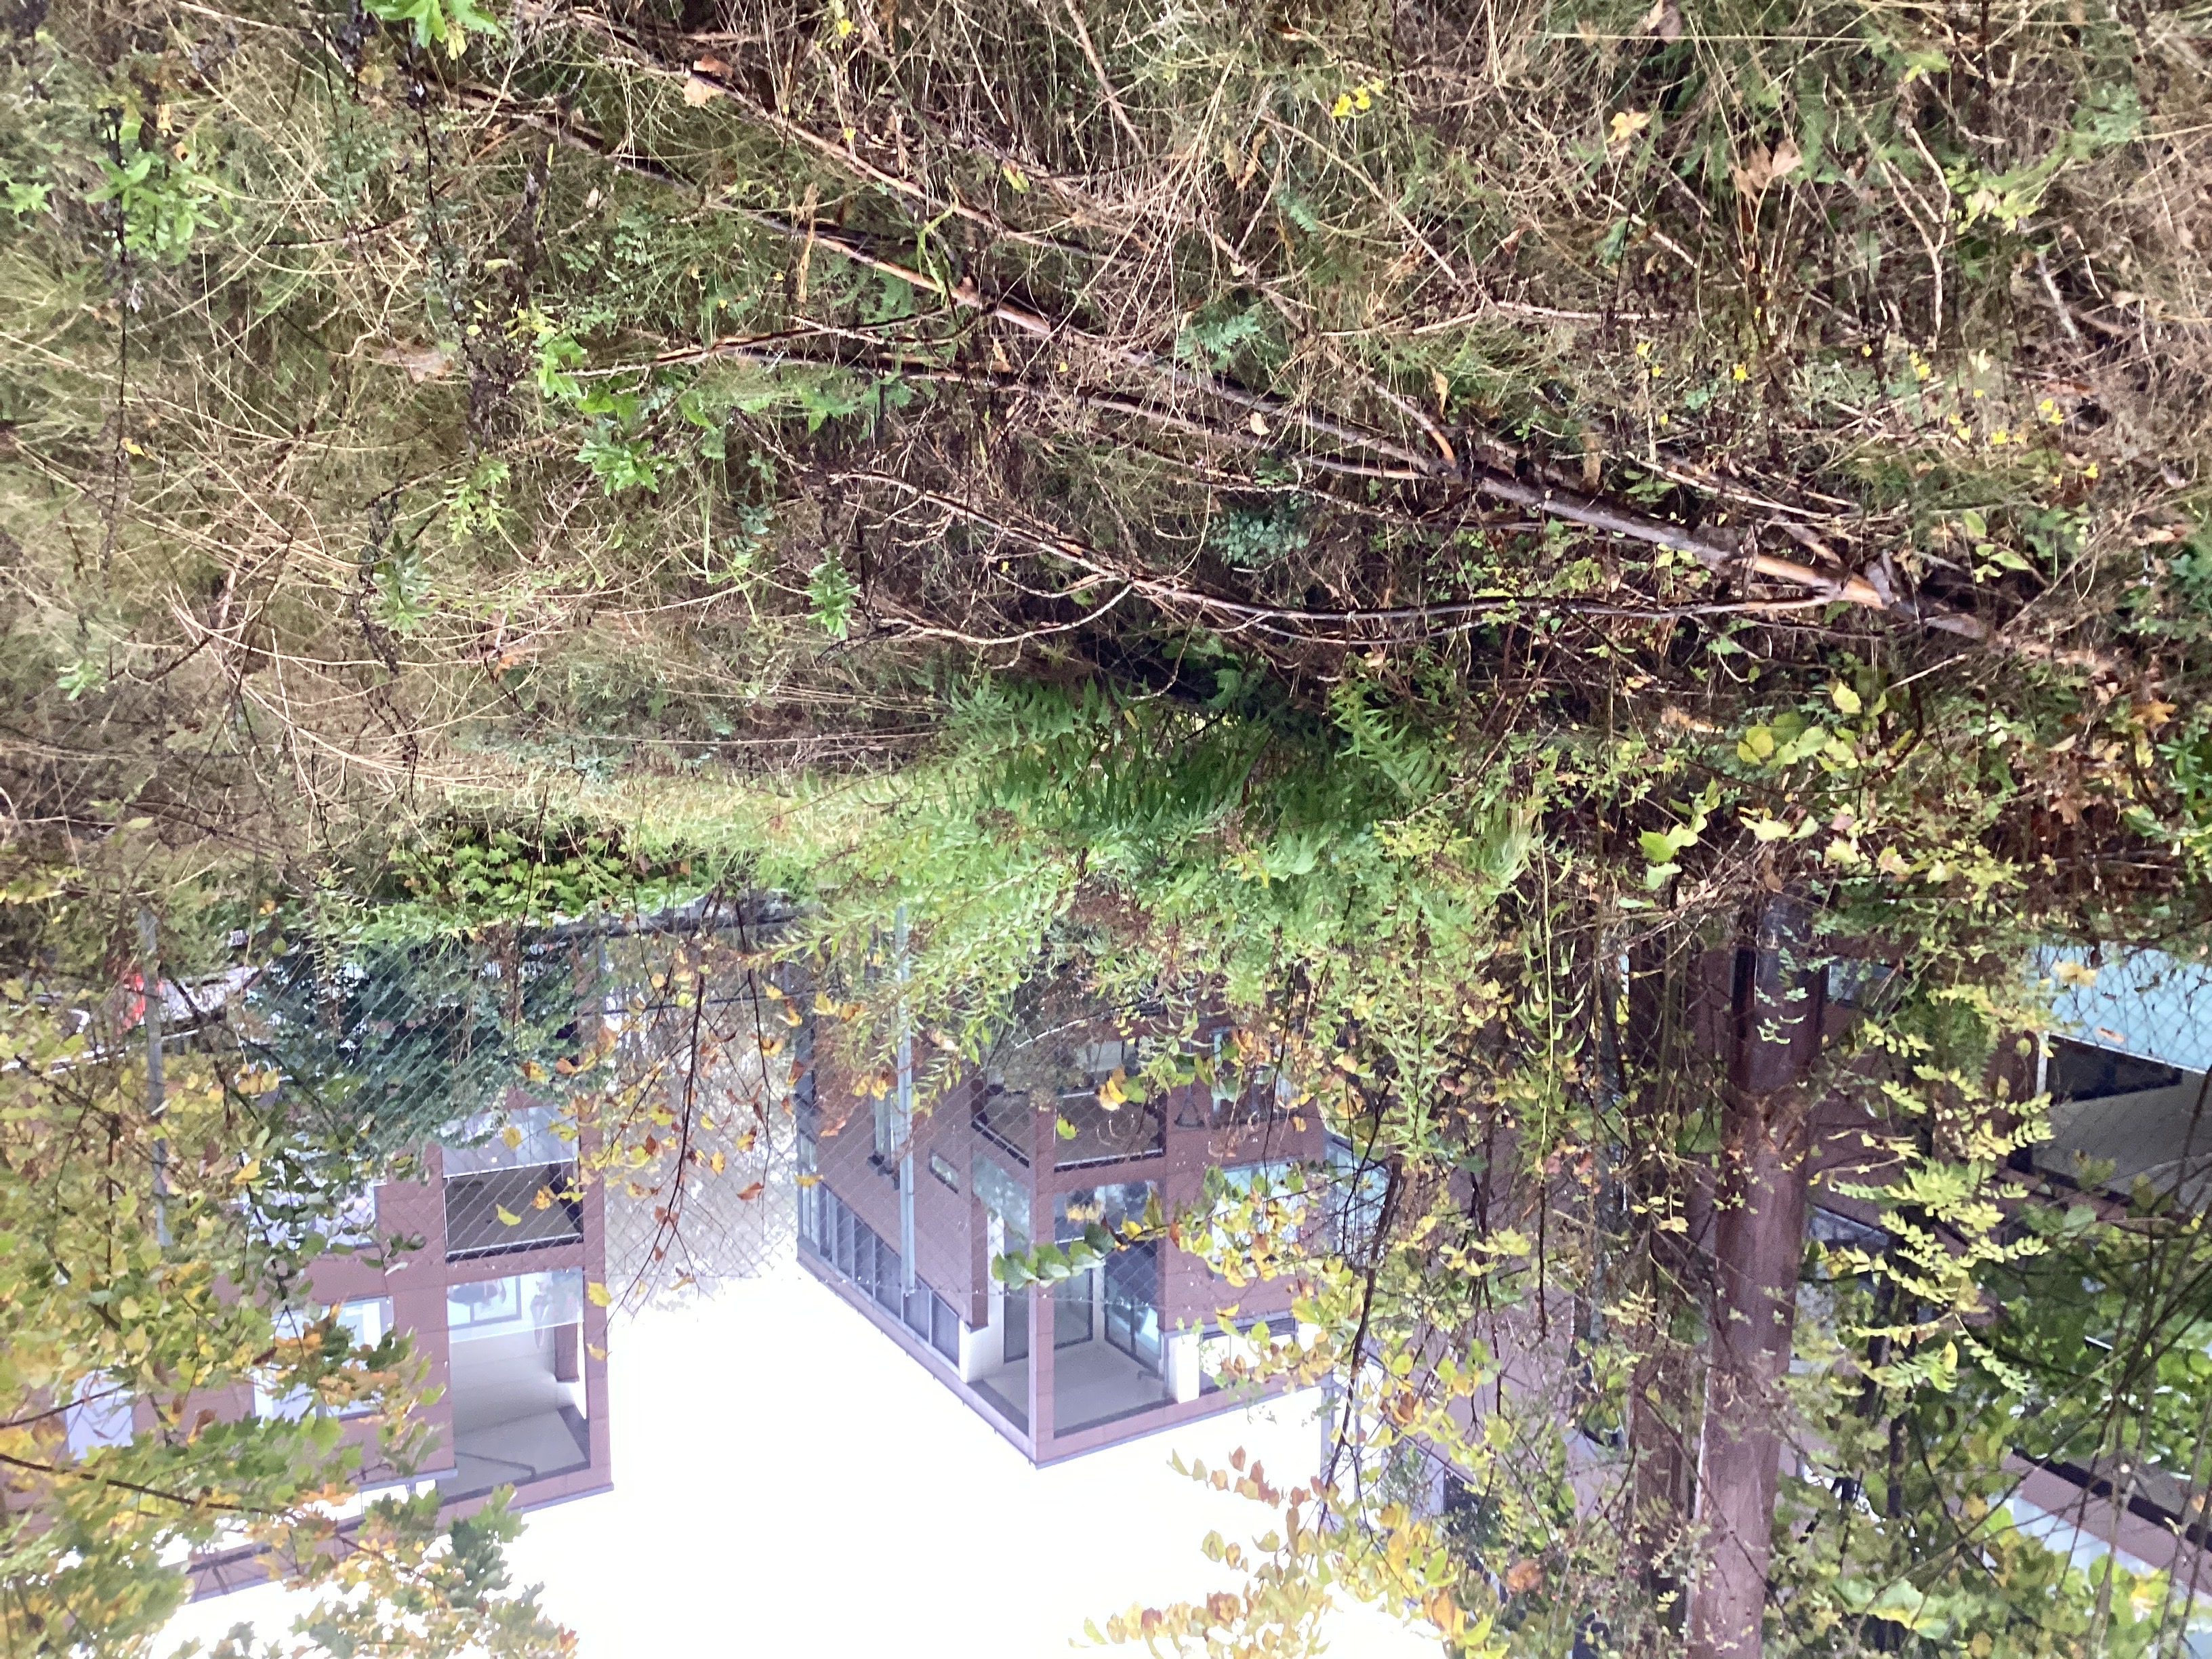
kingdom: Plantae
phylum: Tracheophyta
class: Magnoliopsida
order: Asterales
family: Asteraceae
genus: Solidago
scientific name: Solidago canadensis
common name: kanadagullris
